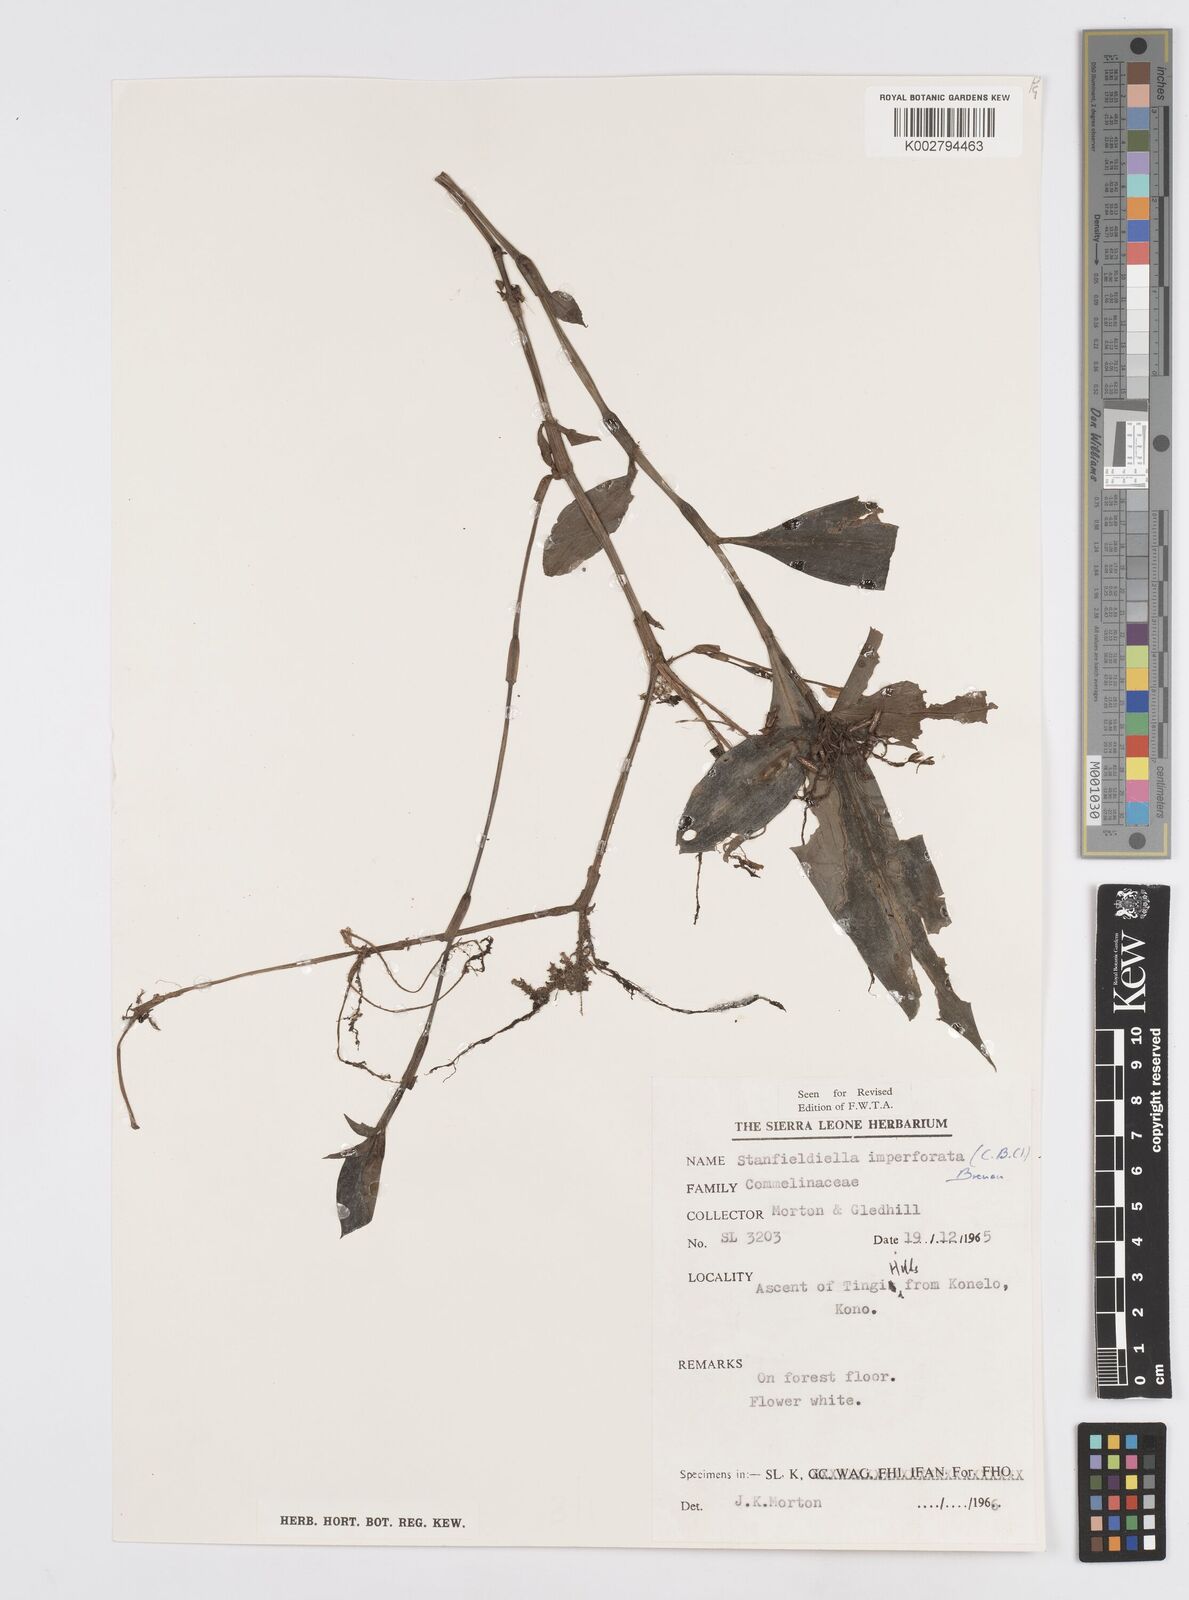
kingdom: Plantae
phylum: Tracheophyta
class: Liliopsida
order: Commelinales
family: Commelinaceae
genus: Stanfieldiella
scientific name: Stanfieldiella imperforata
